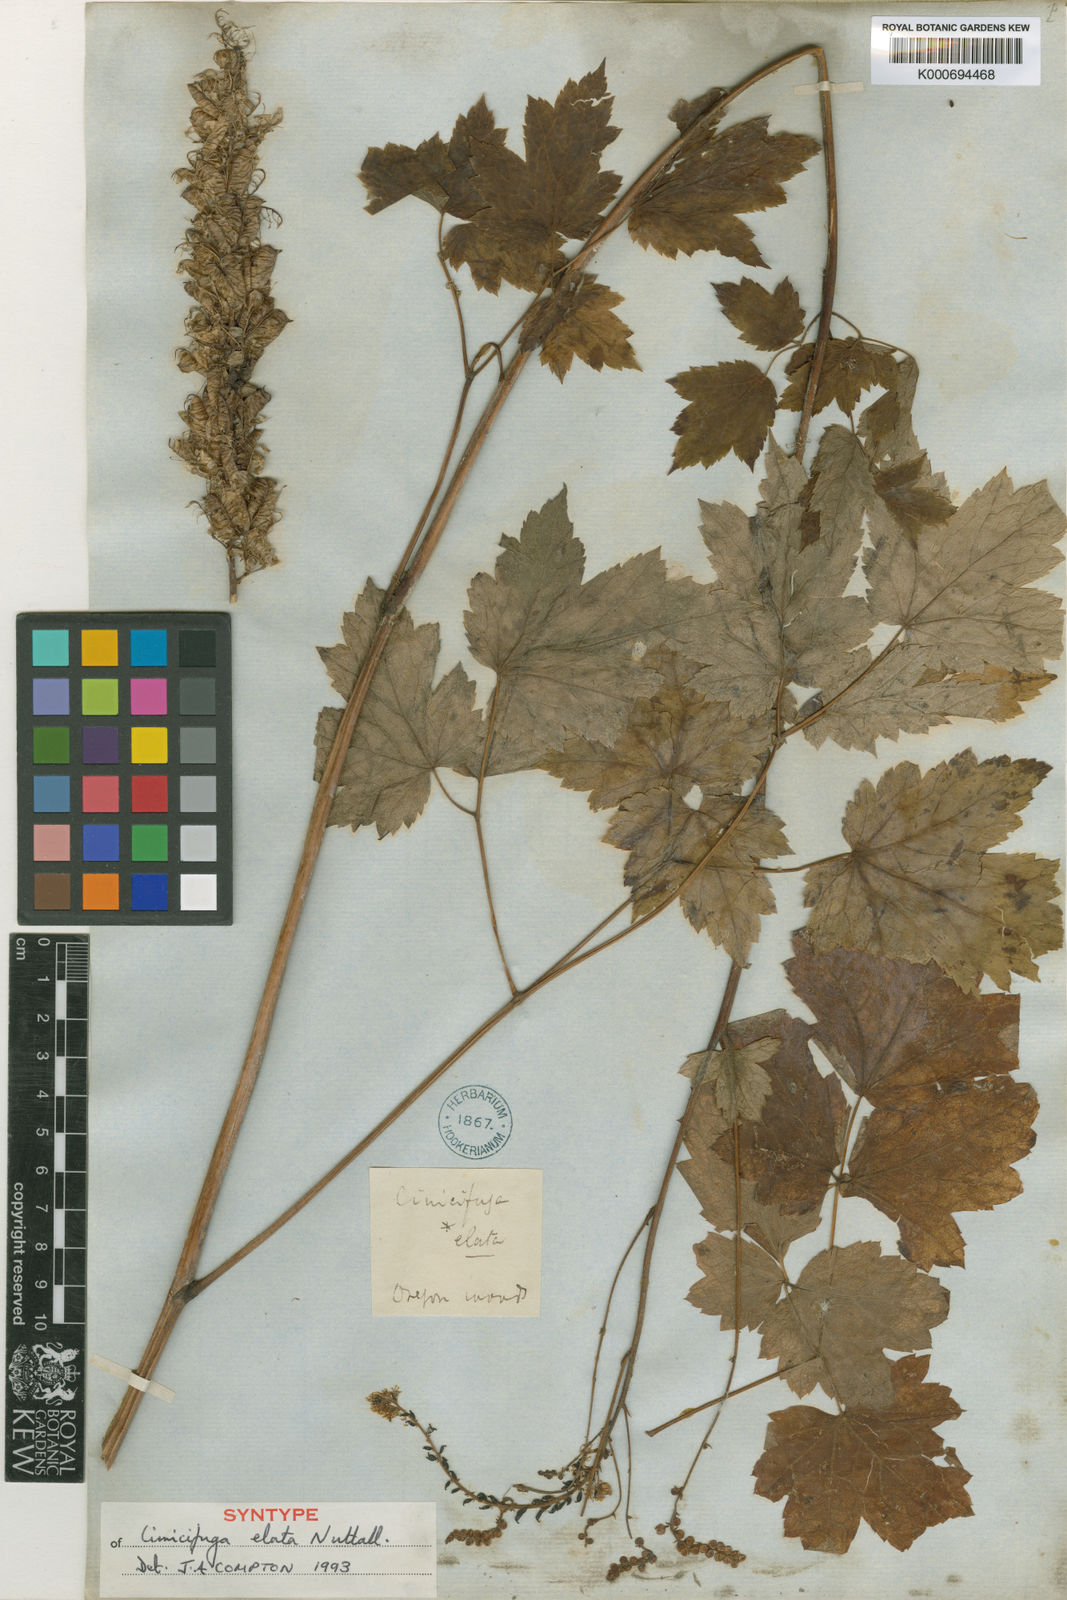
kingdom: Plantae
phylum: Tracheophyta
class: Magnoliopsida
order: Ranunculales
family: Ranunculaceae
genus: Actaea
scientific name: Actaea elata
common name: Tall bugbane
